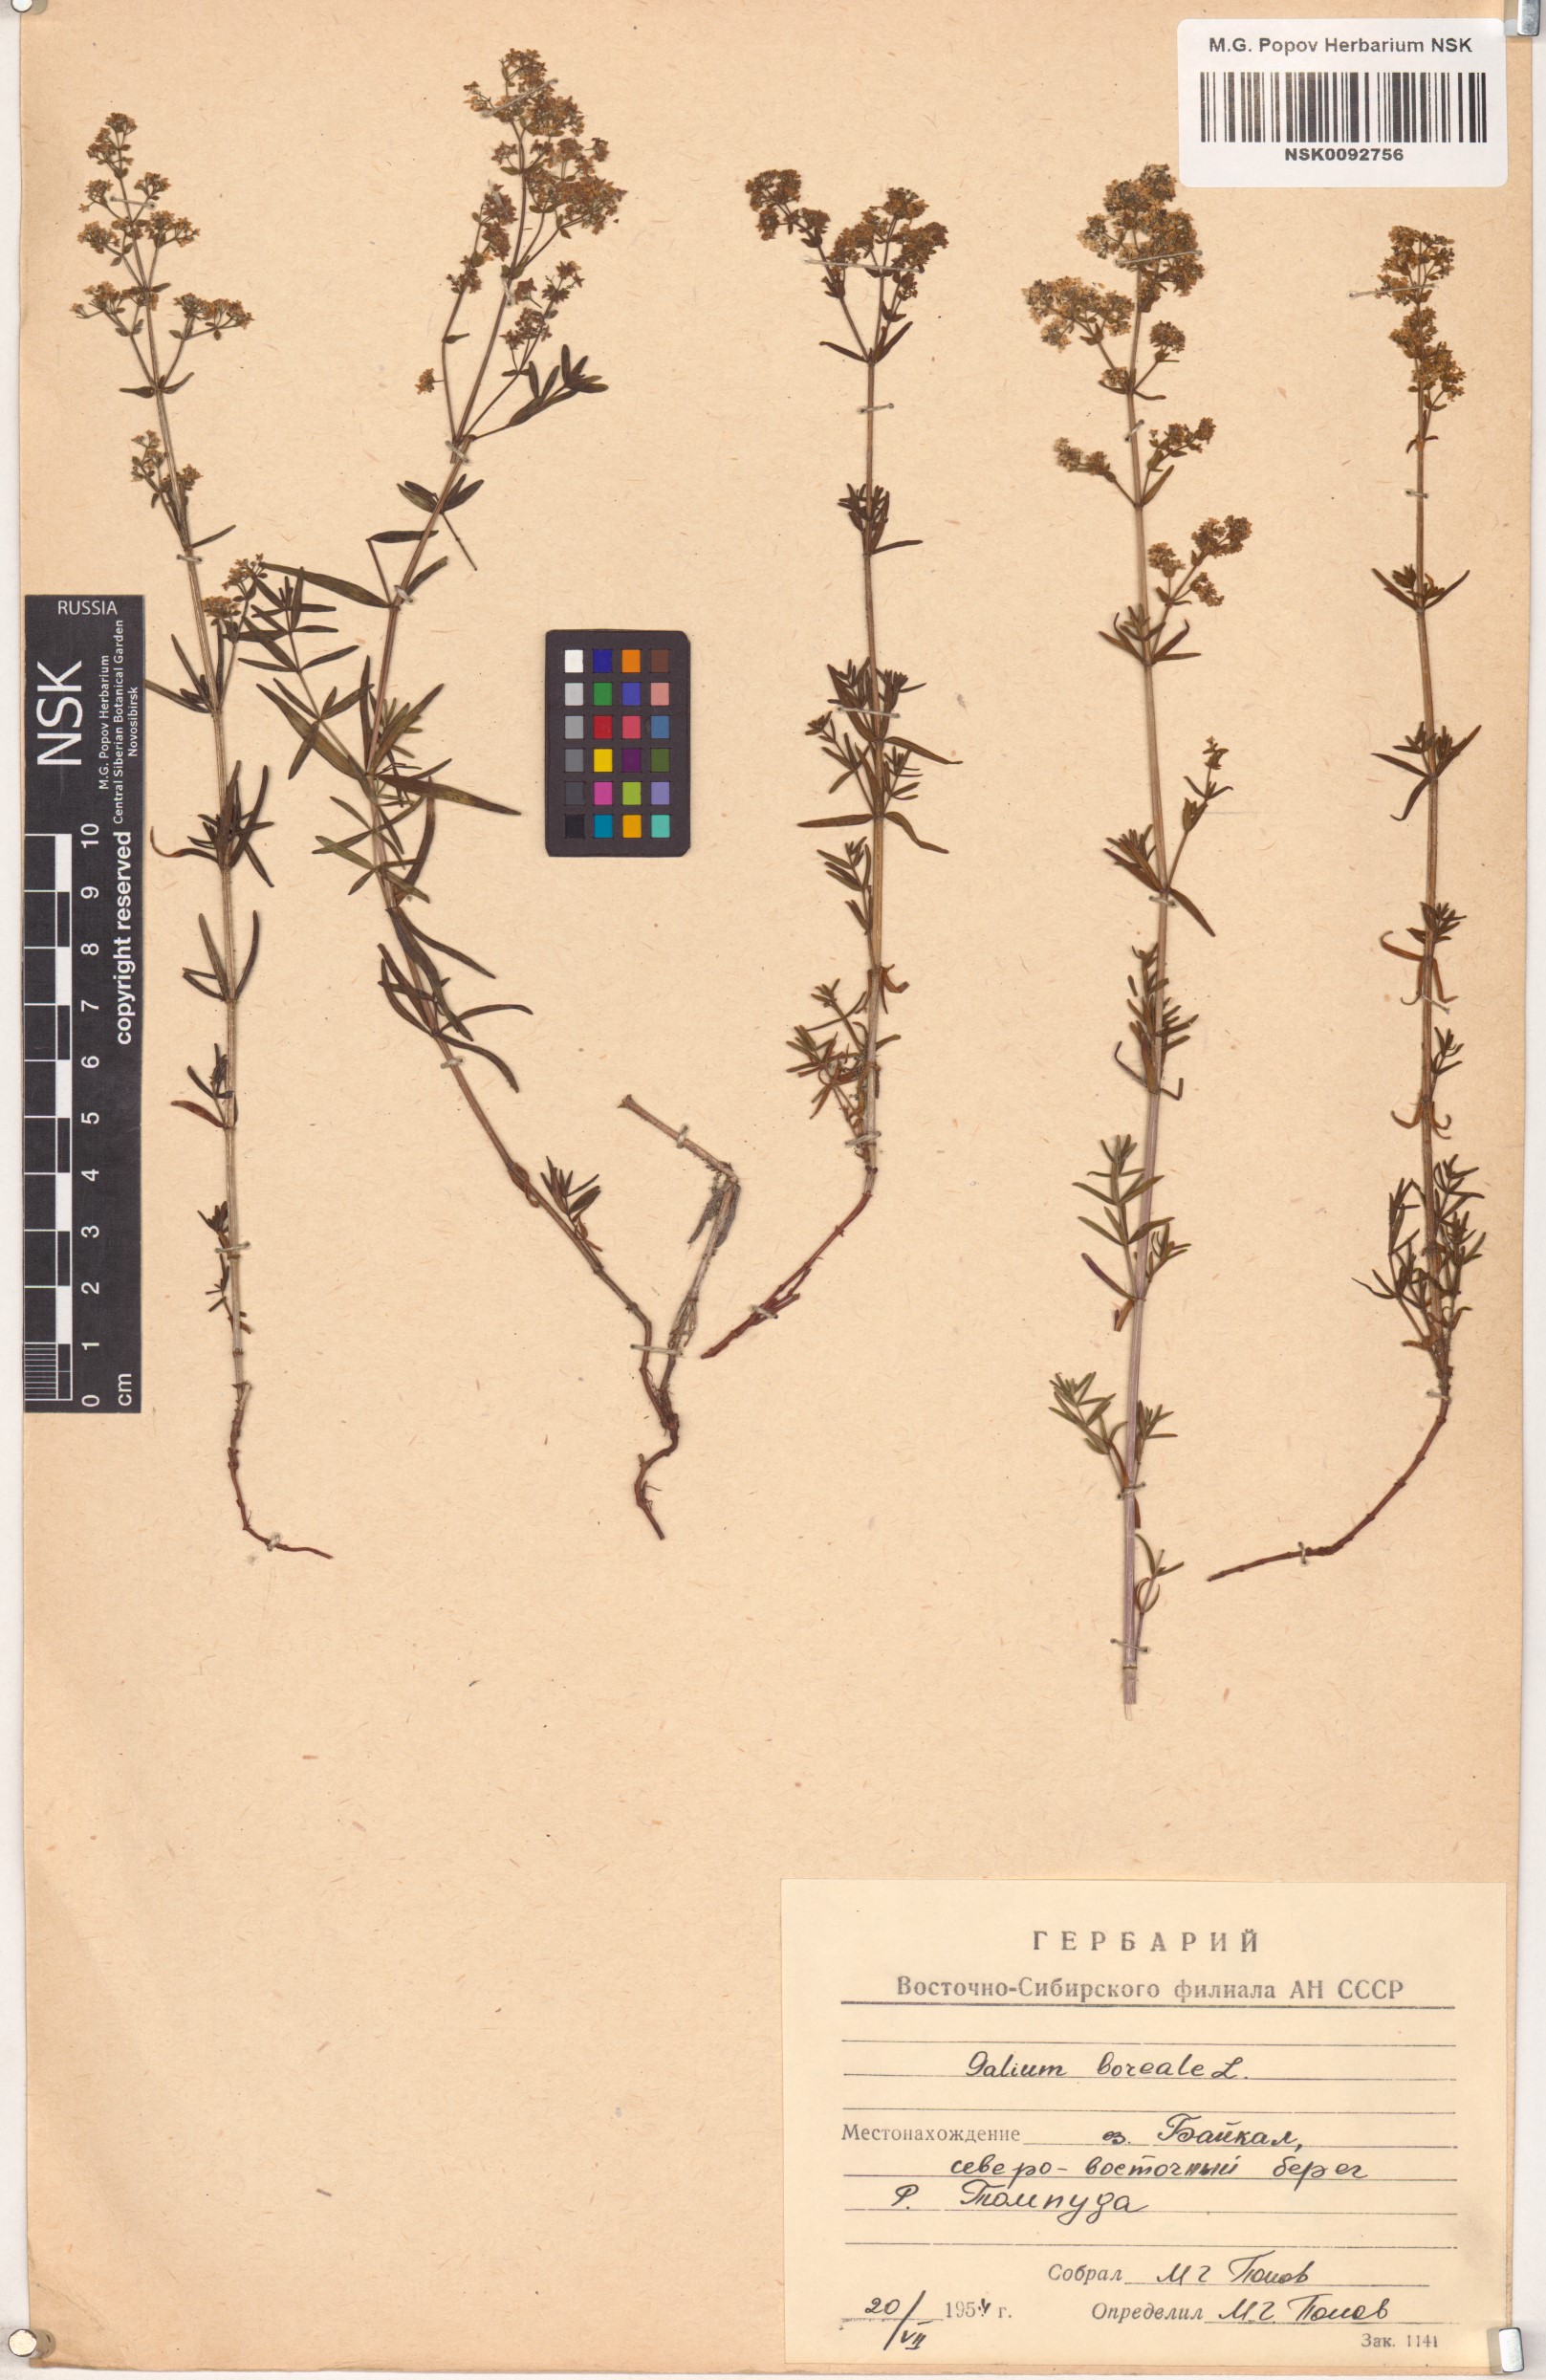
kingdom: Plantae
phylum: Tracheophyta
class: Magnoliopsida
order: Gentianales
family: Rubiaceae
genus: Galium
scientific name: Galium boreale
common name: Northern bedstraw
